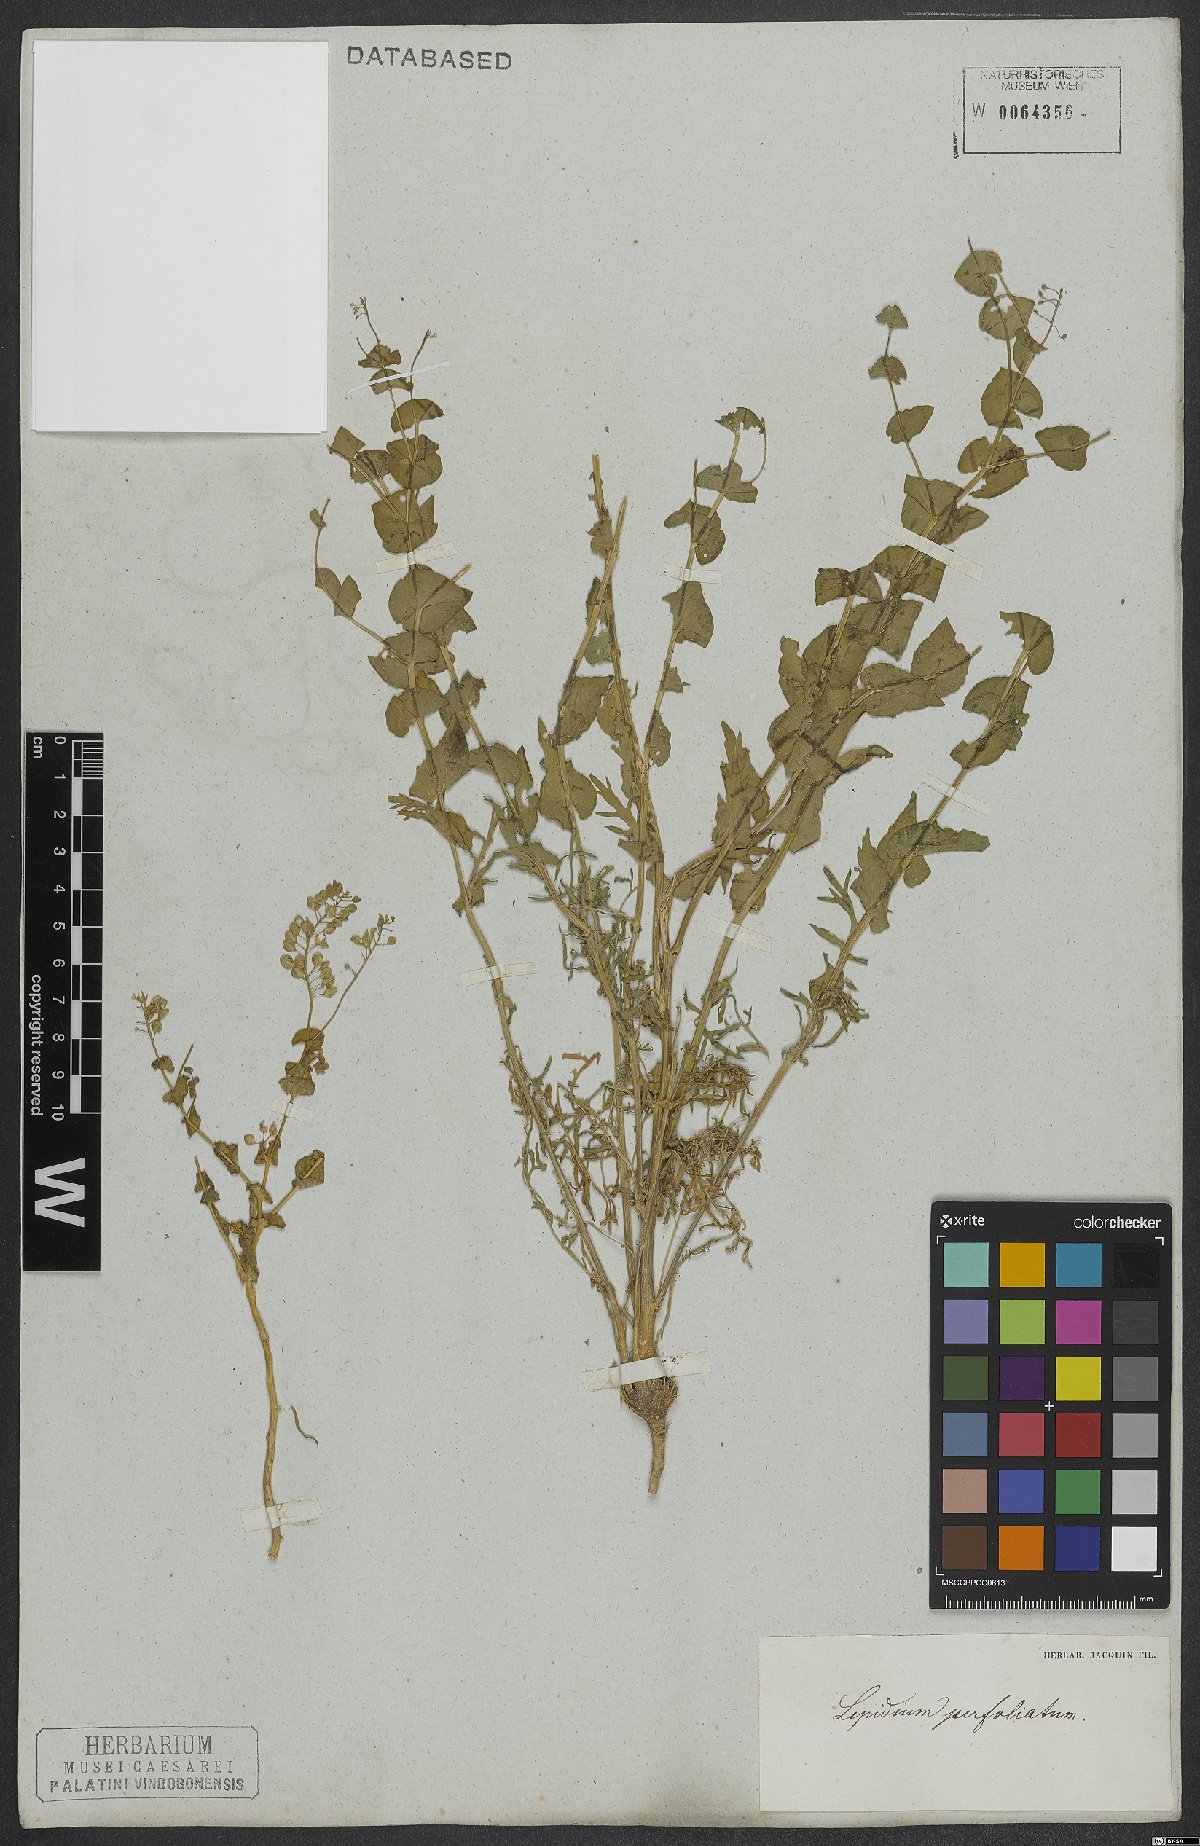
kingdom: Plantae
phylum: Tracheophyta
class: Magnoliopsida
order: Brassicales
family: Brassicaceae
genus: Lepidium
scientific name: Lepidium perfoliatum
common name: Perfoliate pepperwort
